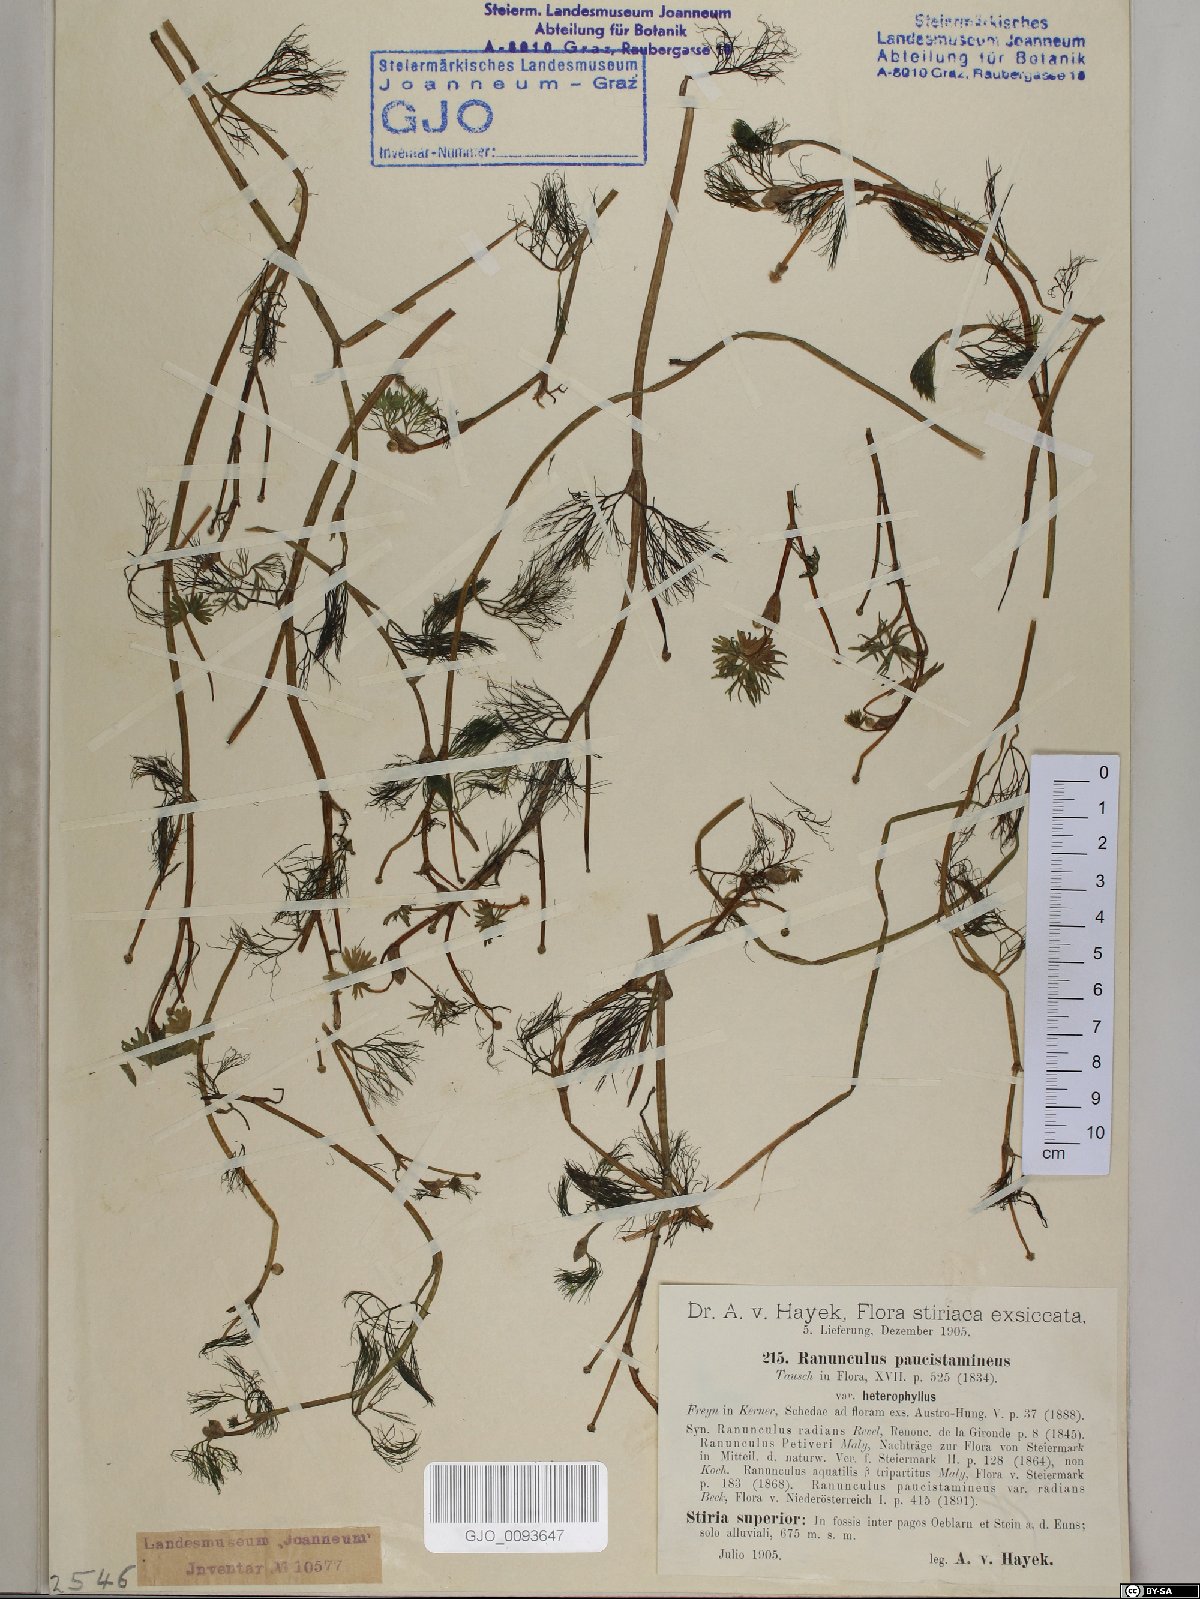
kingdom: Plantae
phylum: Tracheophyta
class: Magnoliopsida
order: Ranunculales
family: Ranunculaceae
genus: Ranunculus
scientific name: Ranunculus
